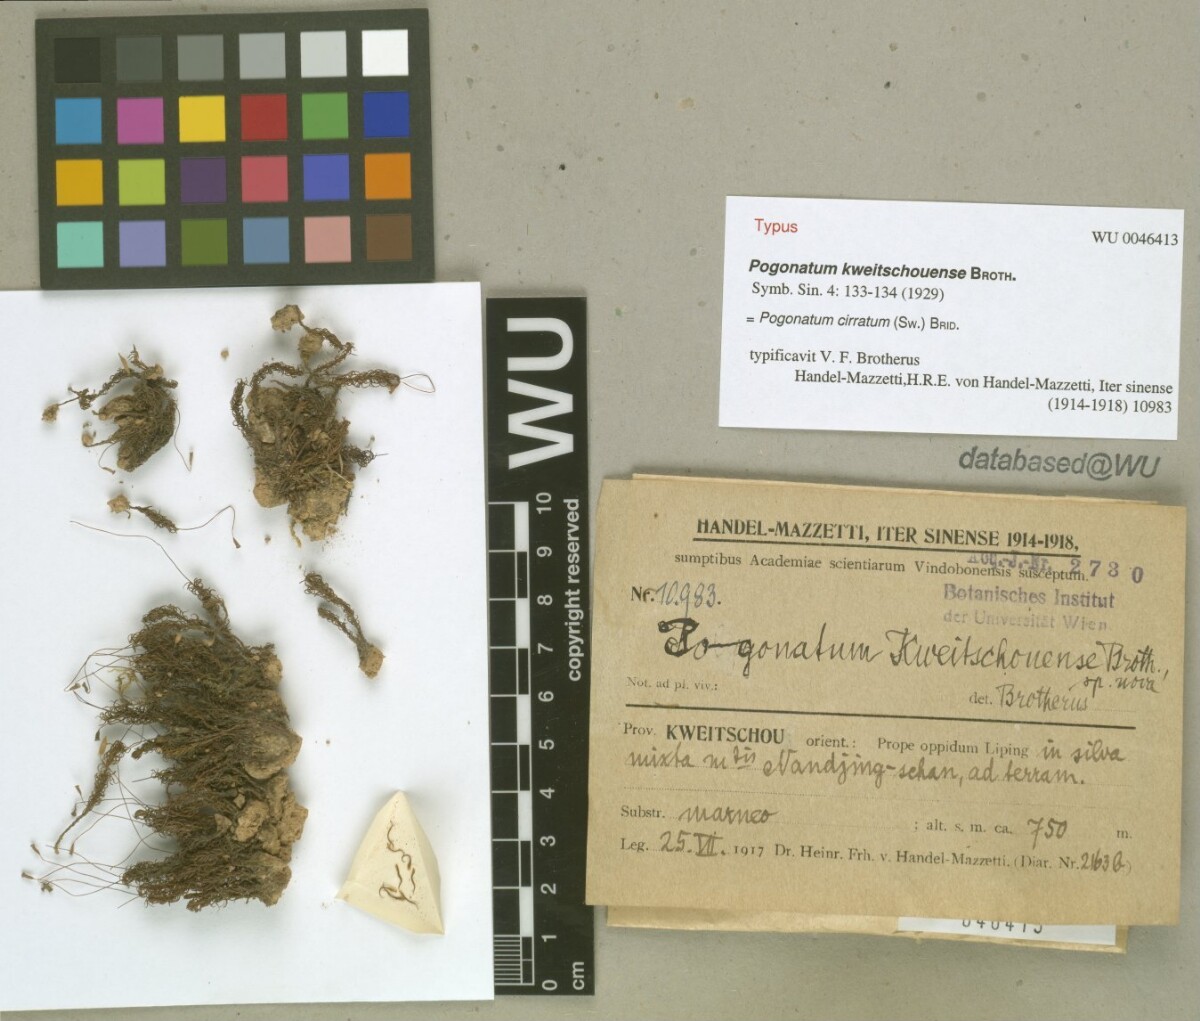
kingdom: Plantae
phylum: Bryophyta
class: Polytrichopsida
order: Polytrichales
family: Polytrichaceae
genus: Pogonatum
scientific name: Pogonatum cirratum
